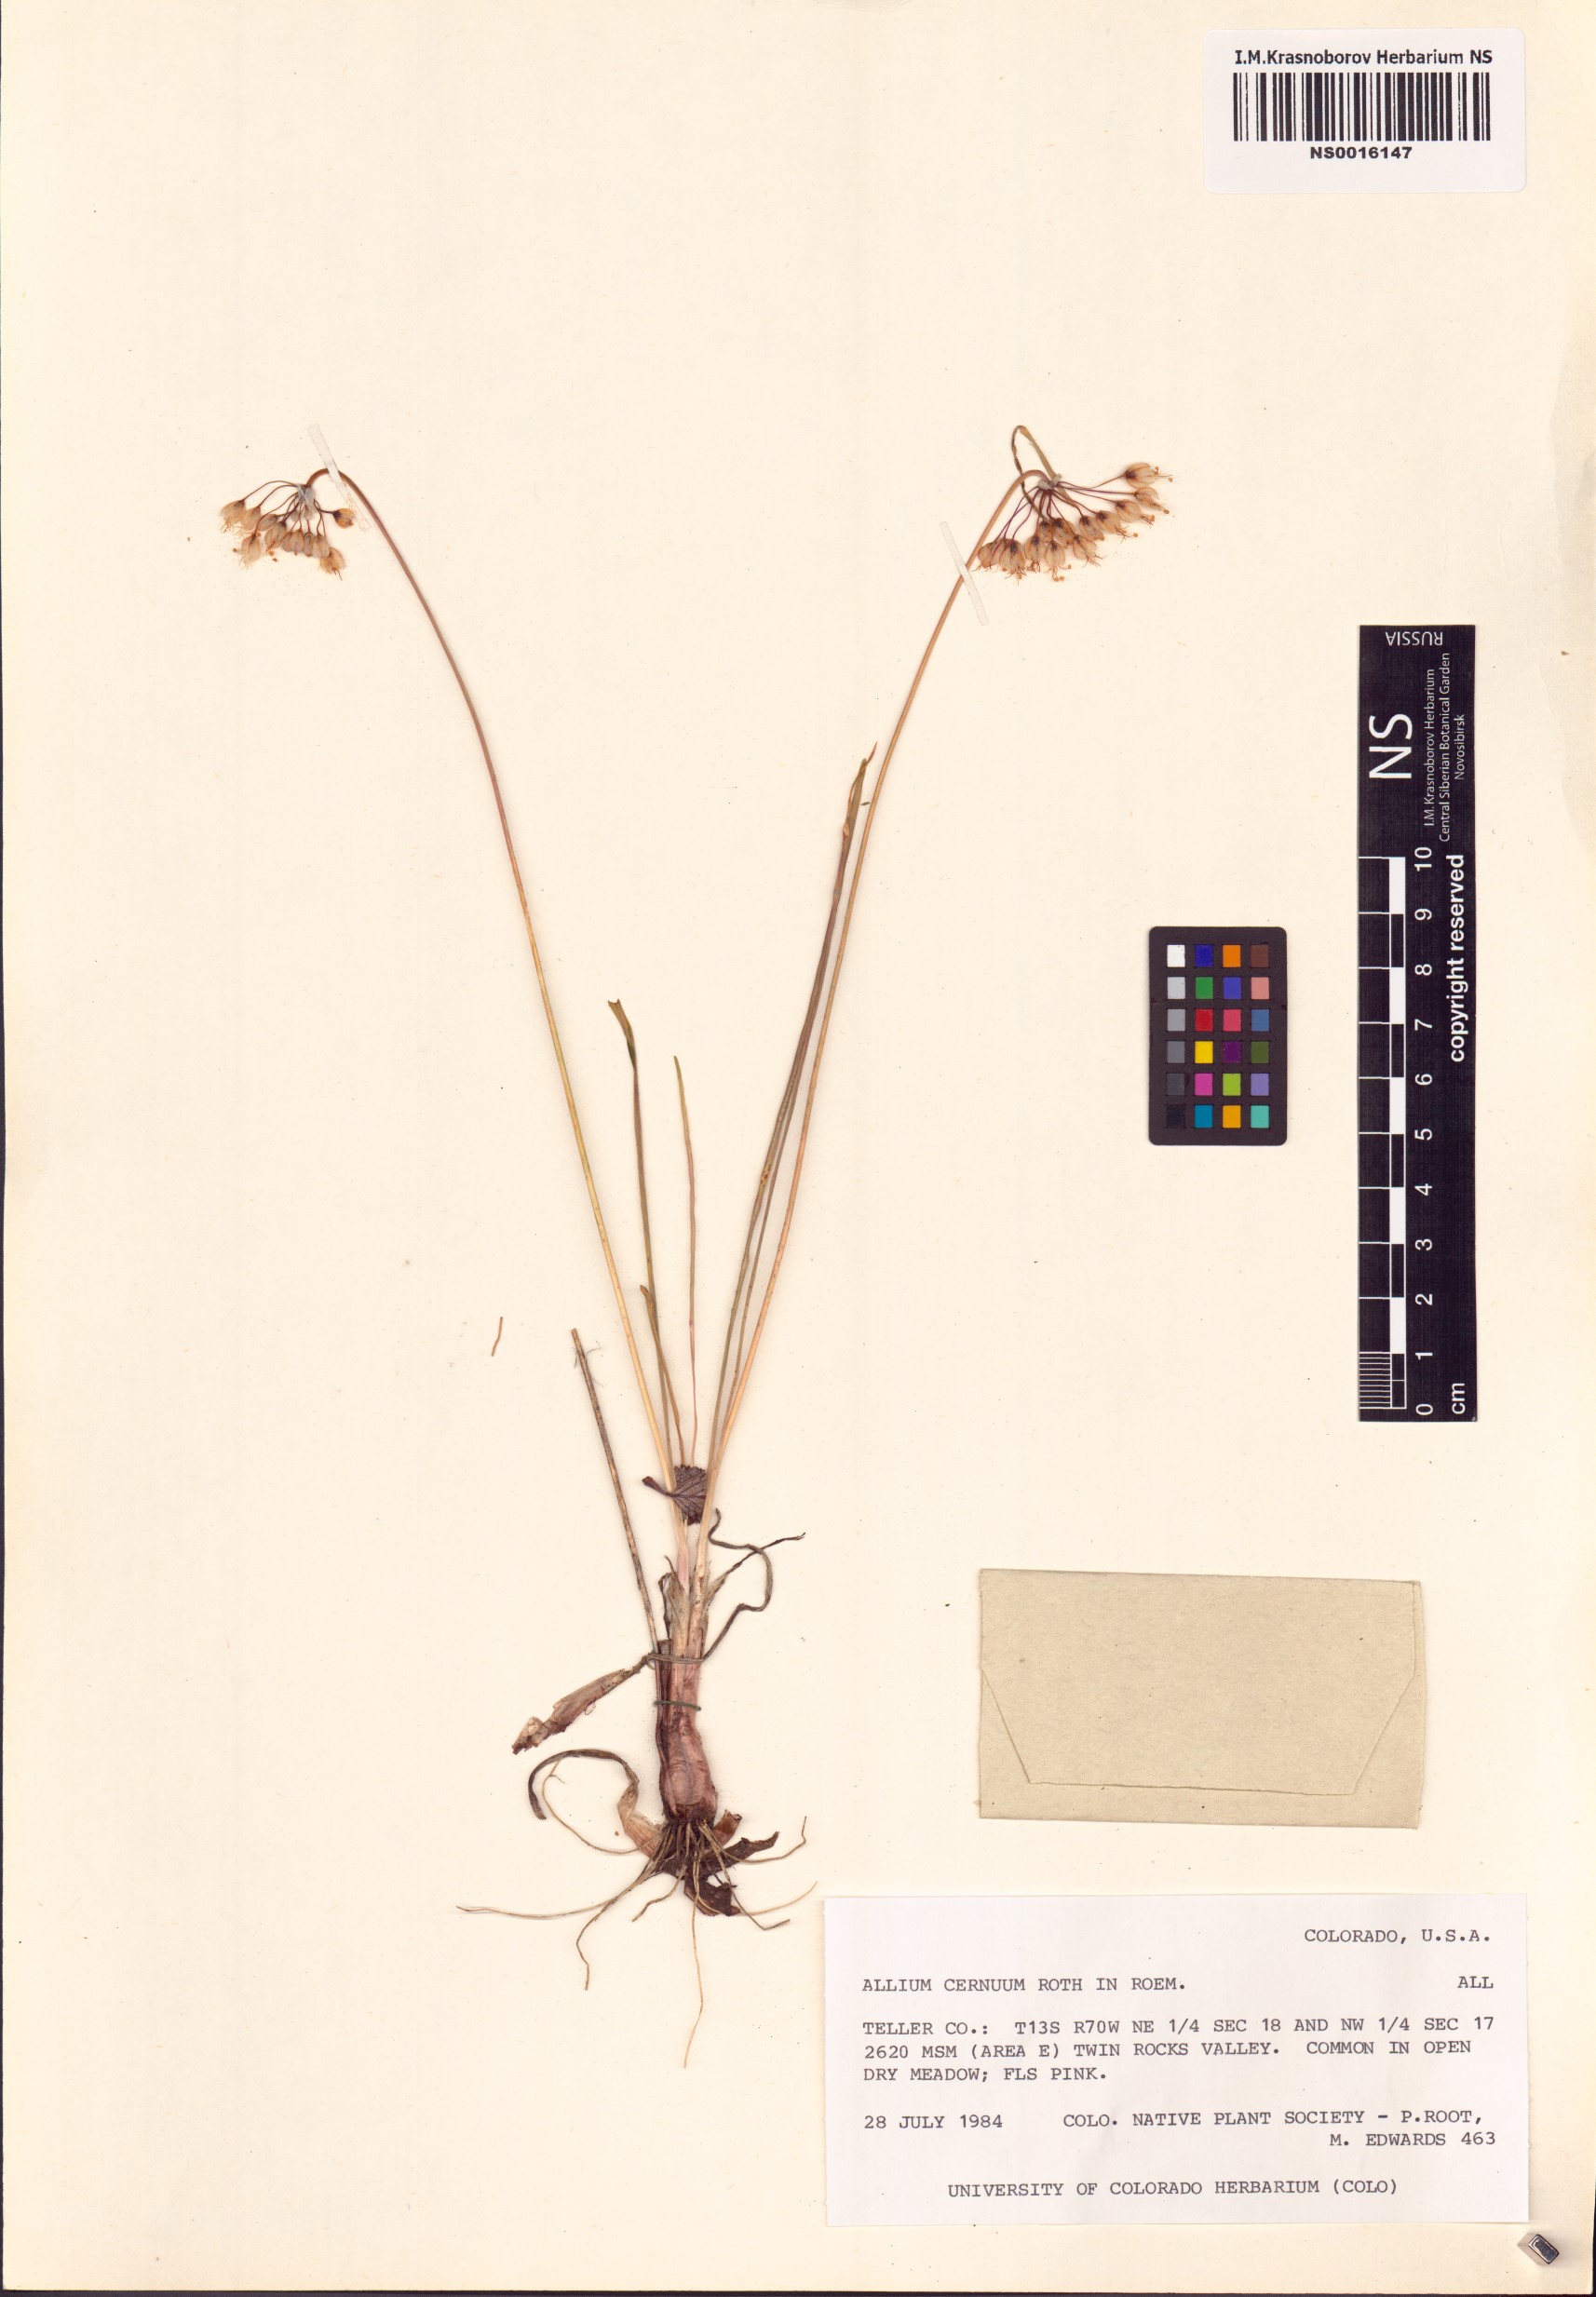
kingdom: Plantae
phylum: Tracheophyta
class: Liliopsida
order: Asparagales
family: Amaryllidaceae
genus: Allium
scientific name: Allium cernuum
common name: Nodding onion
